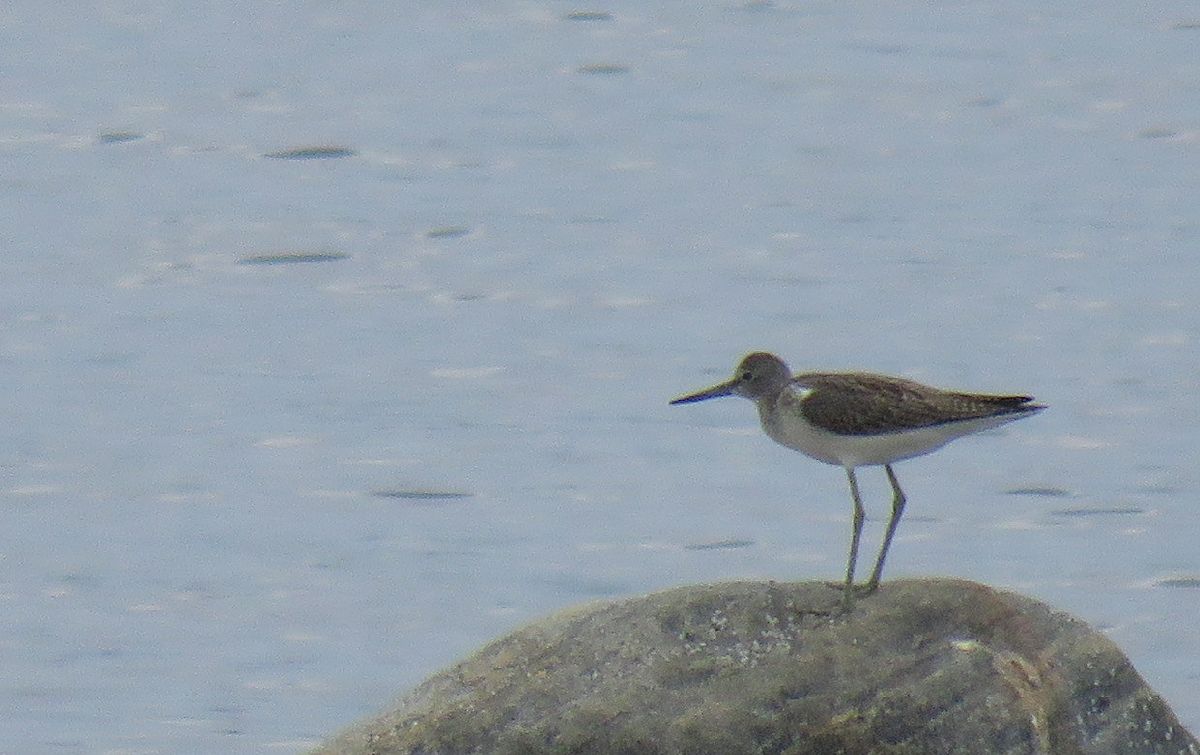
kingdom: Animalia
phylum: Chordata
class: Aves
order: Charadriiformes
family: Scolopacidae
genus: Tringa
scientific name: Tringa nebularia
